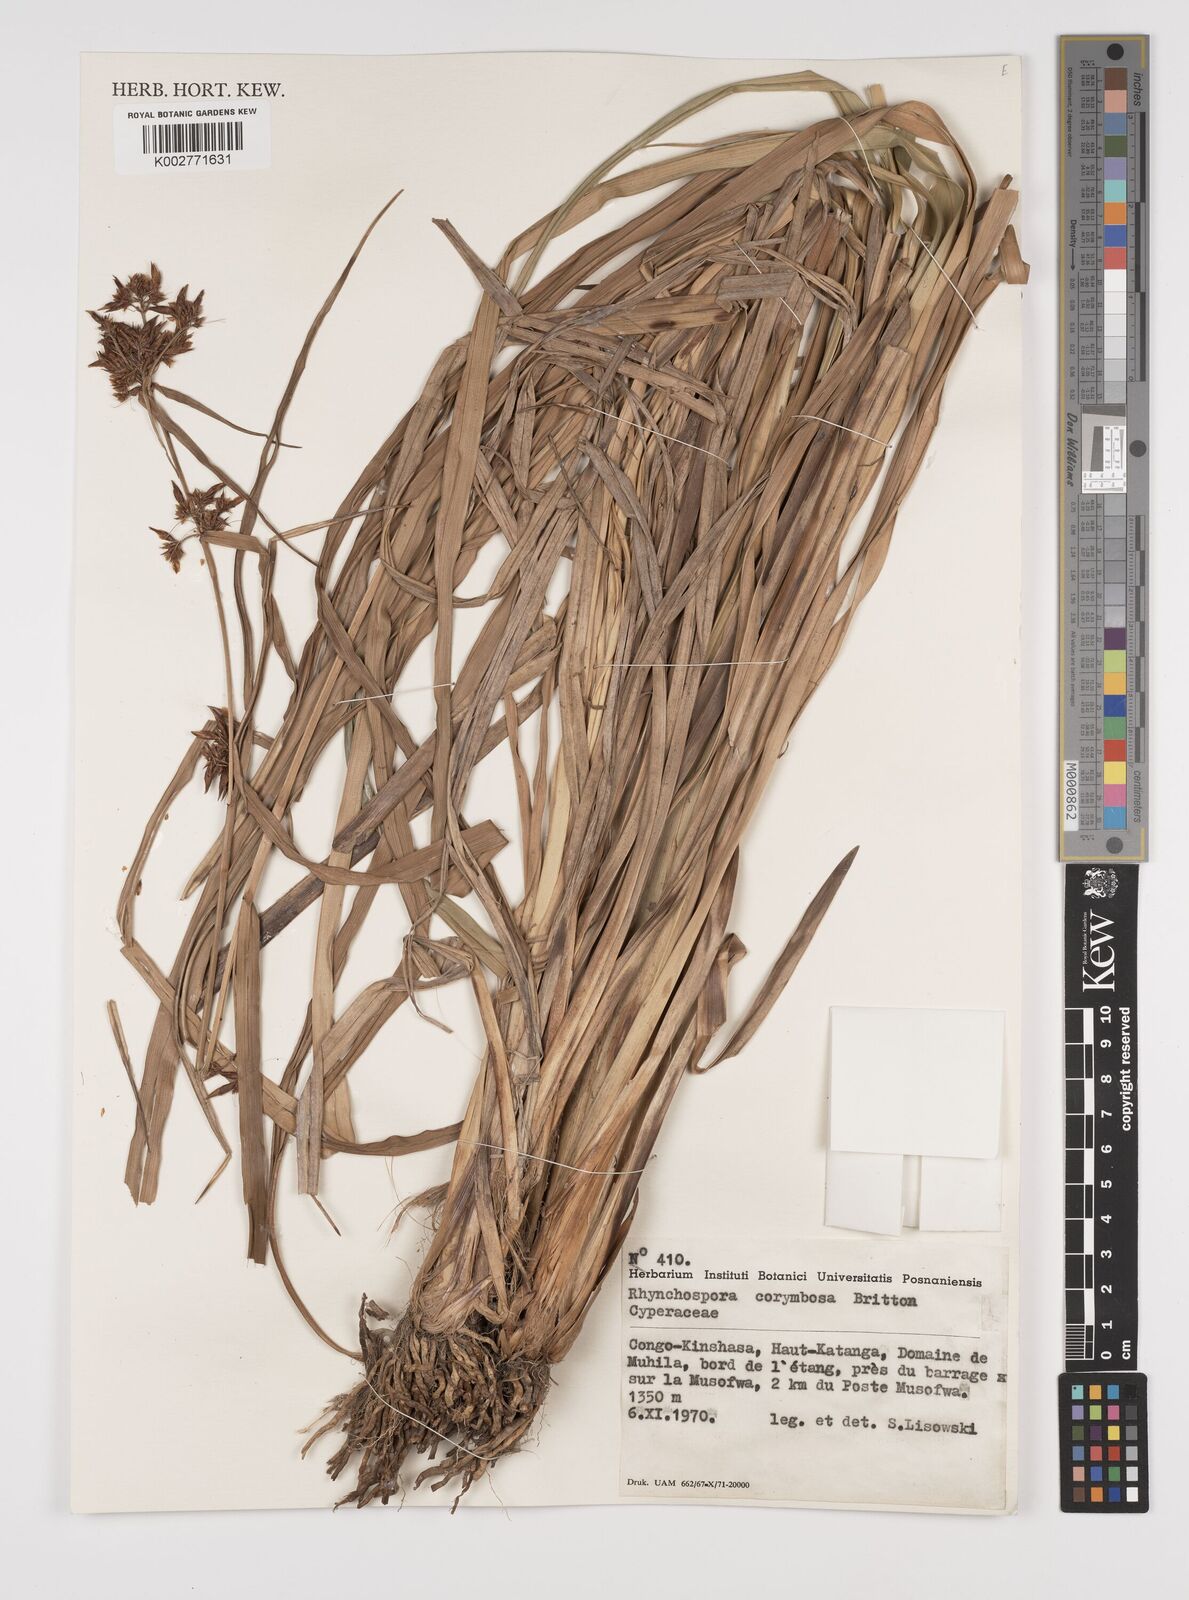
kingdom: Plantae
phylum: Tracheophyta
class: Liliopsida
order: Poales
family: Cyperaceae
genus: Rhynchospora
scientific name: Rhynchospora corymbosa
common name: Golden beak sedge
